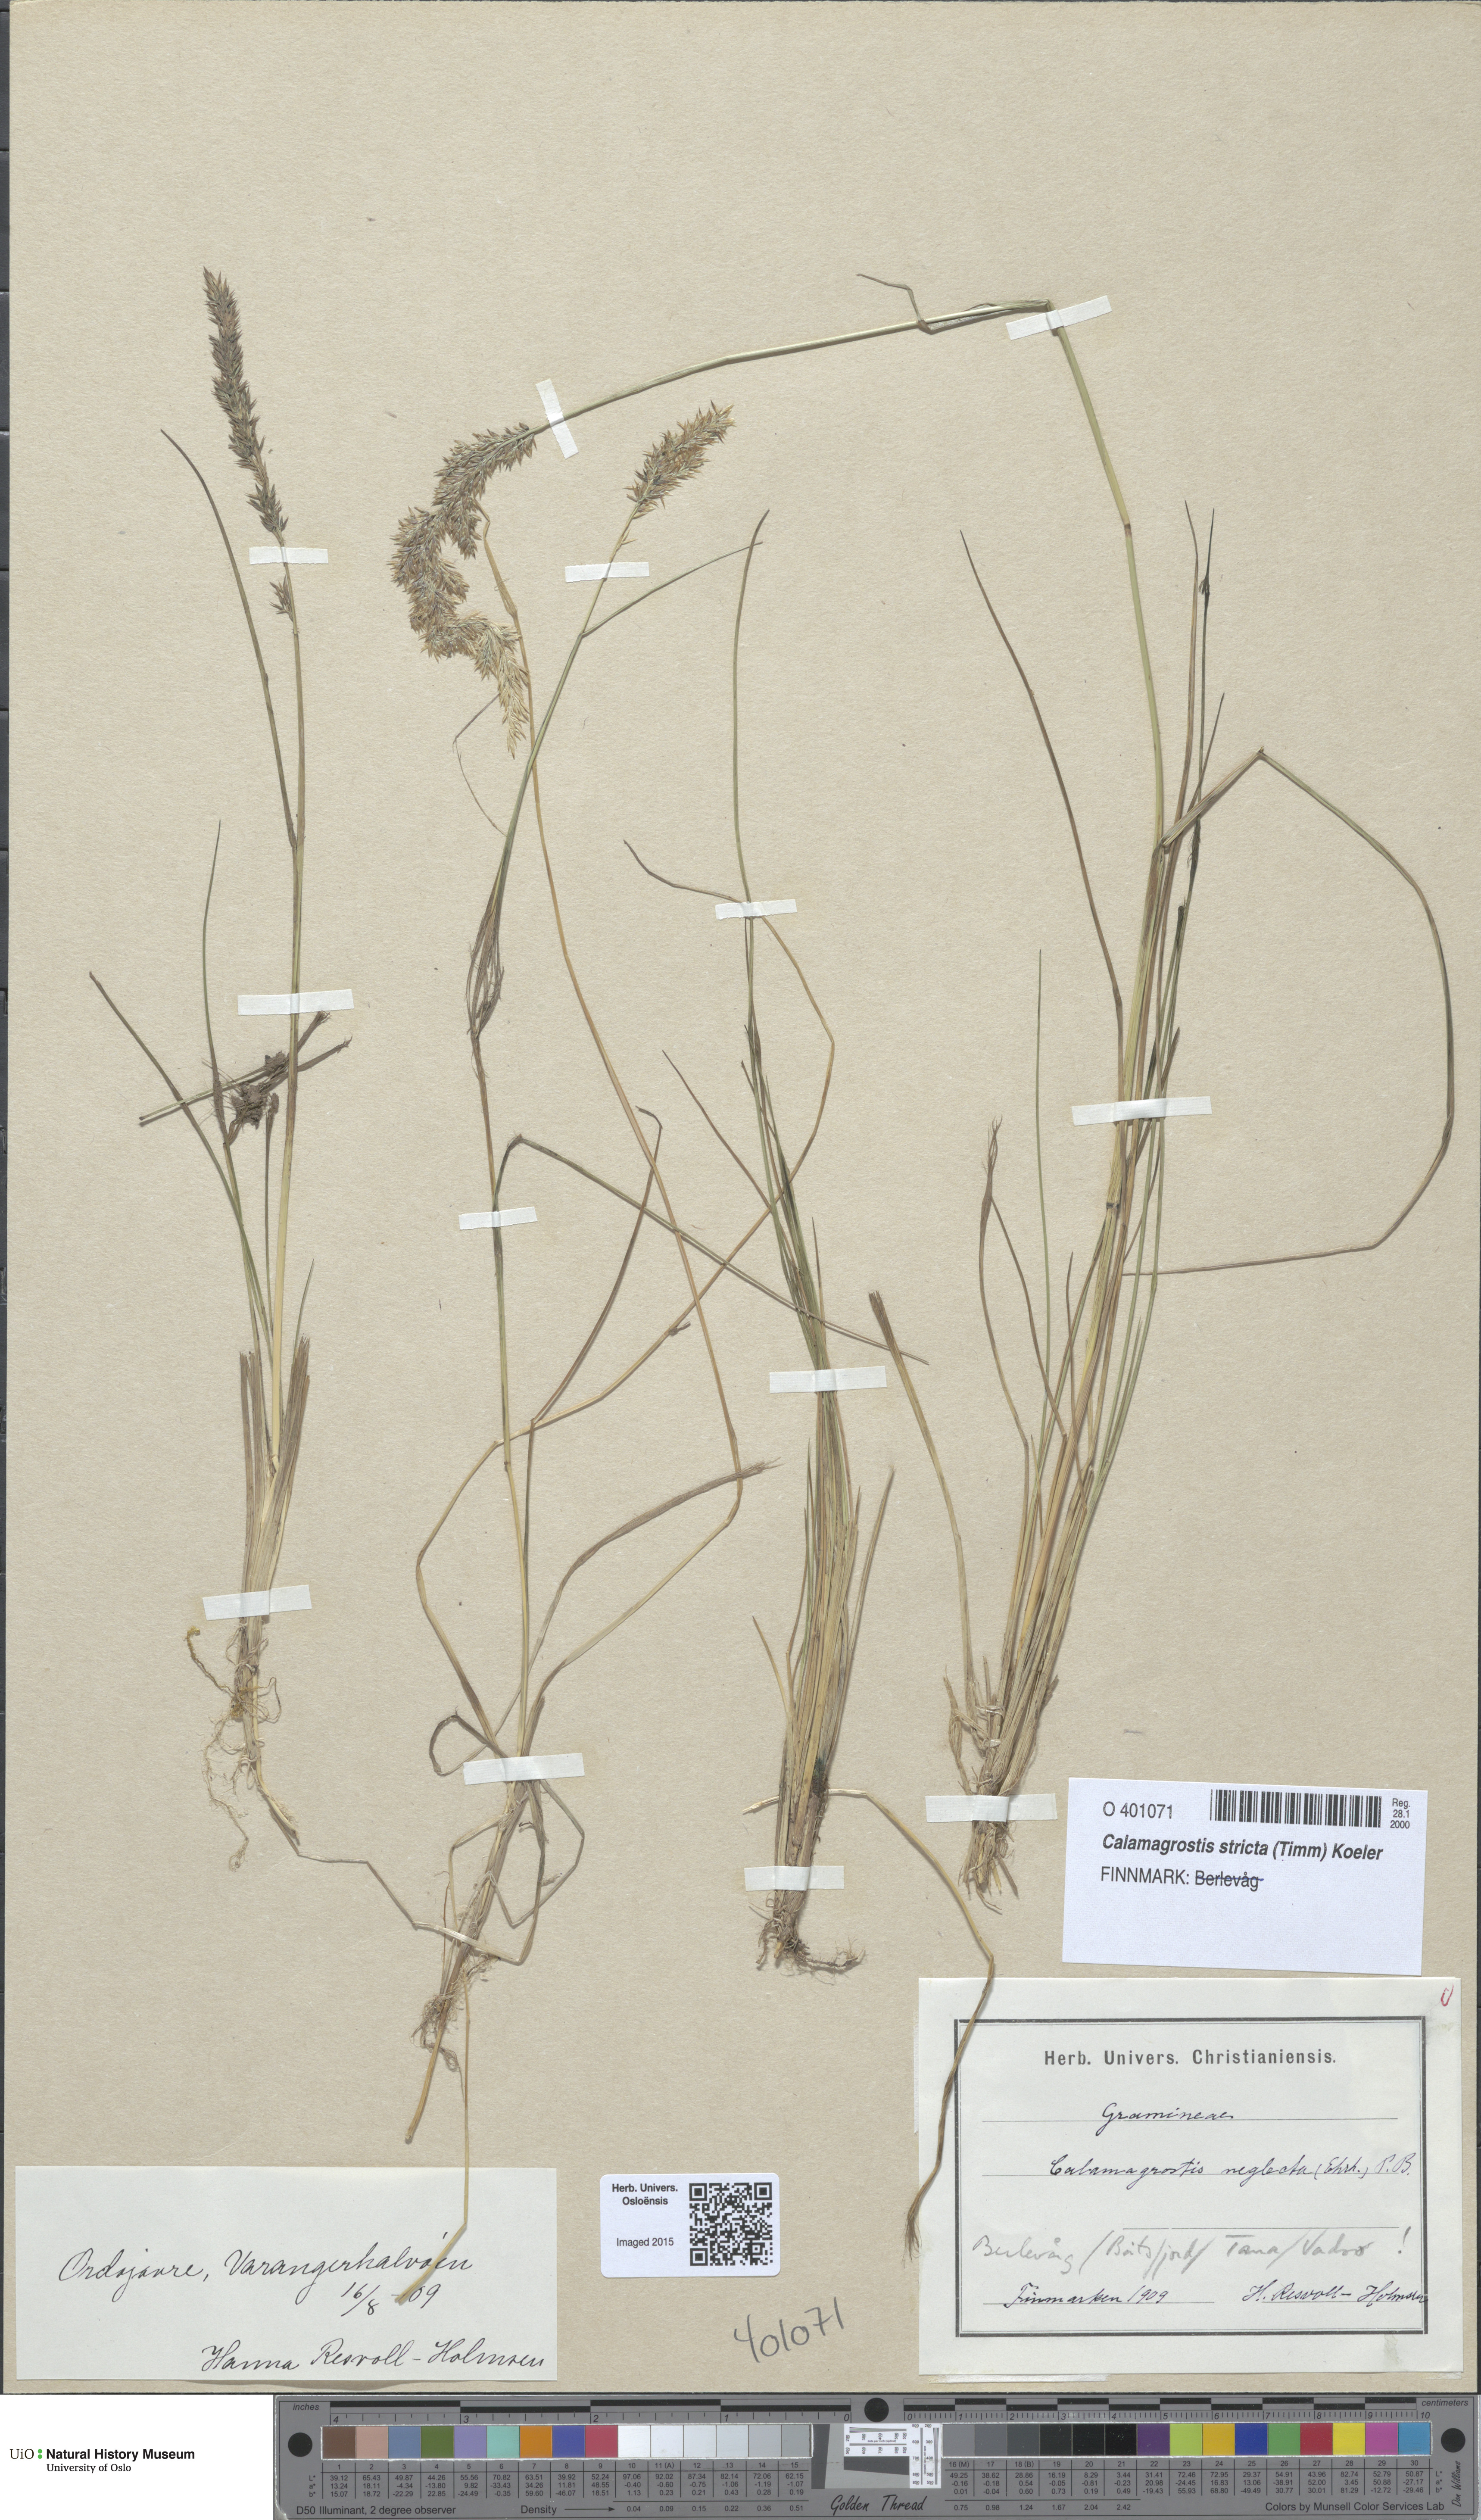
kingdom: Plantae
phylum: Tracheophyta
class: Liliopsida
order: Poales
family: Poaceae
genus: Achnatherum
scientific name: Achnatherum calamagrostis
